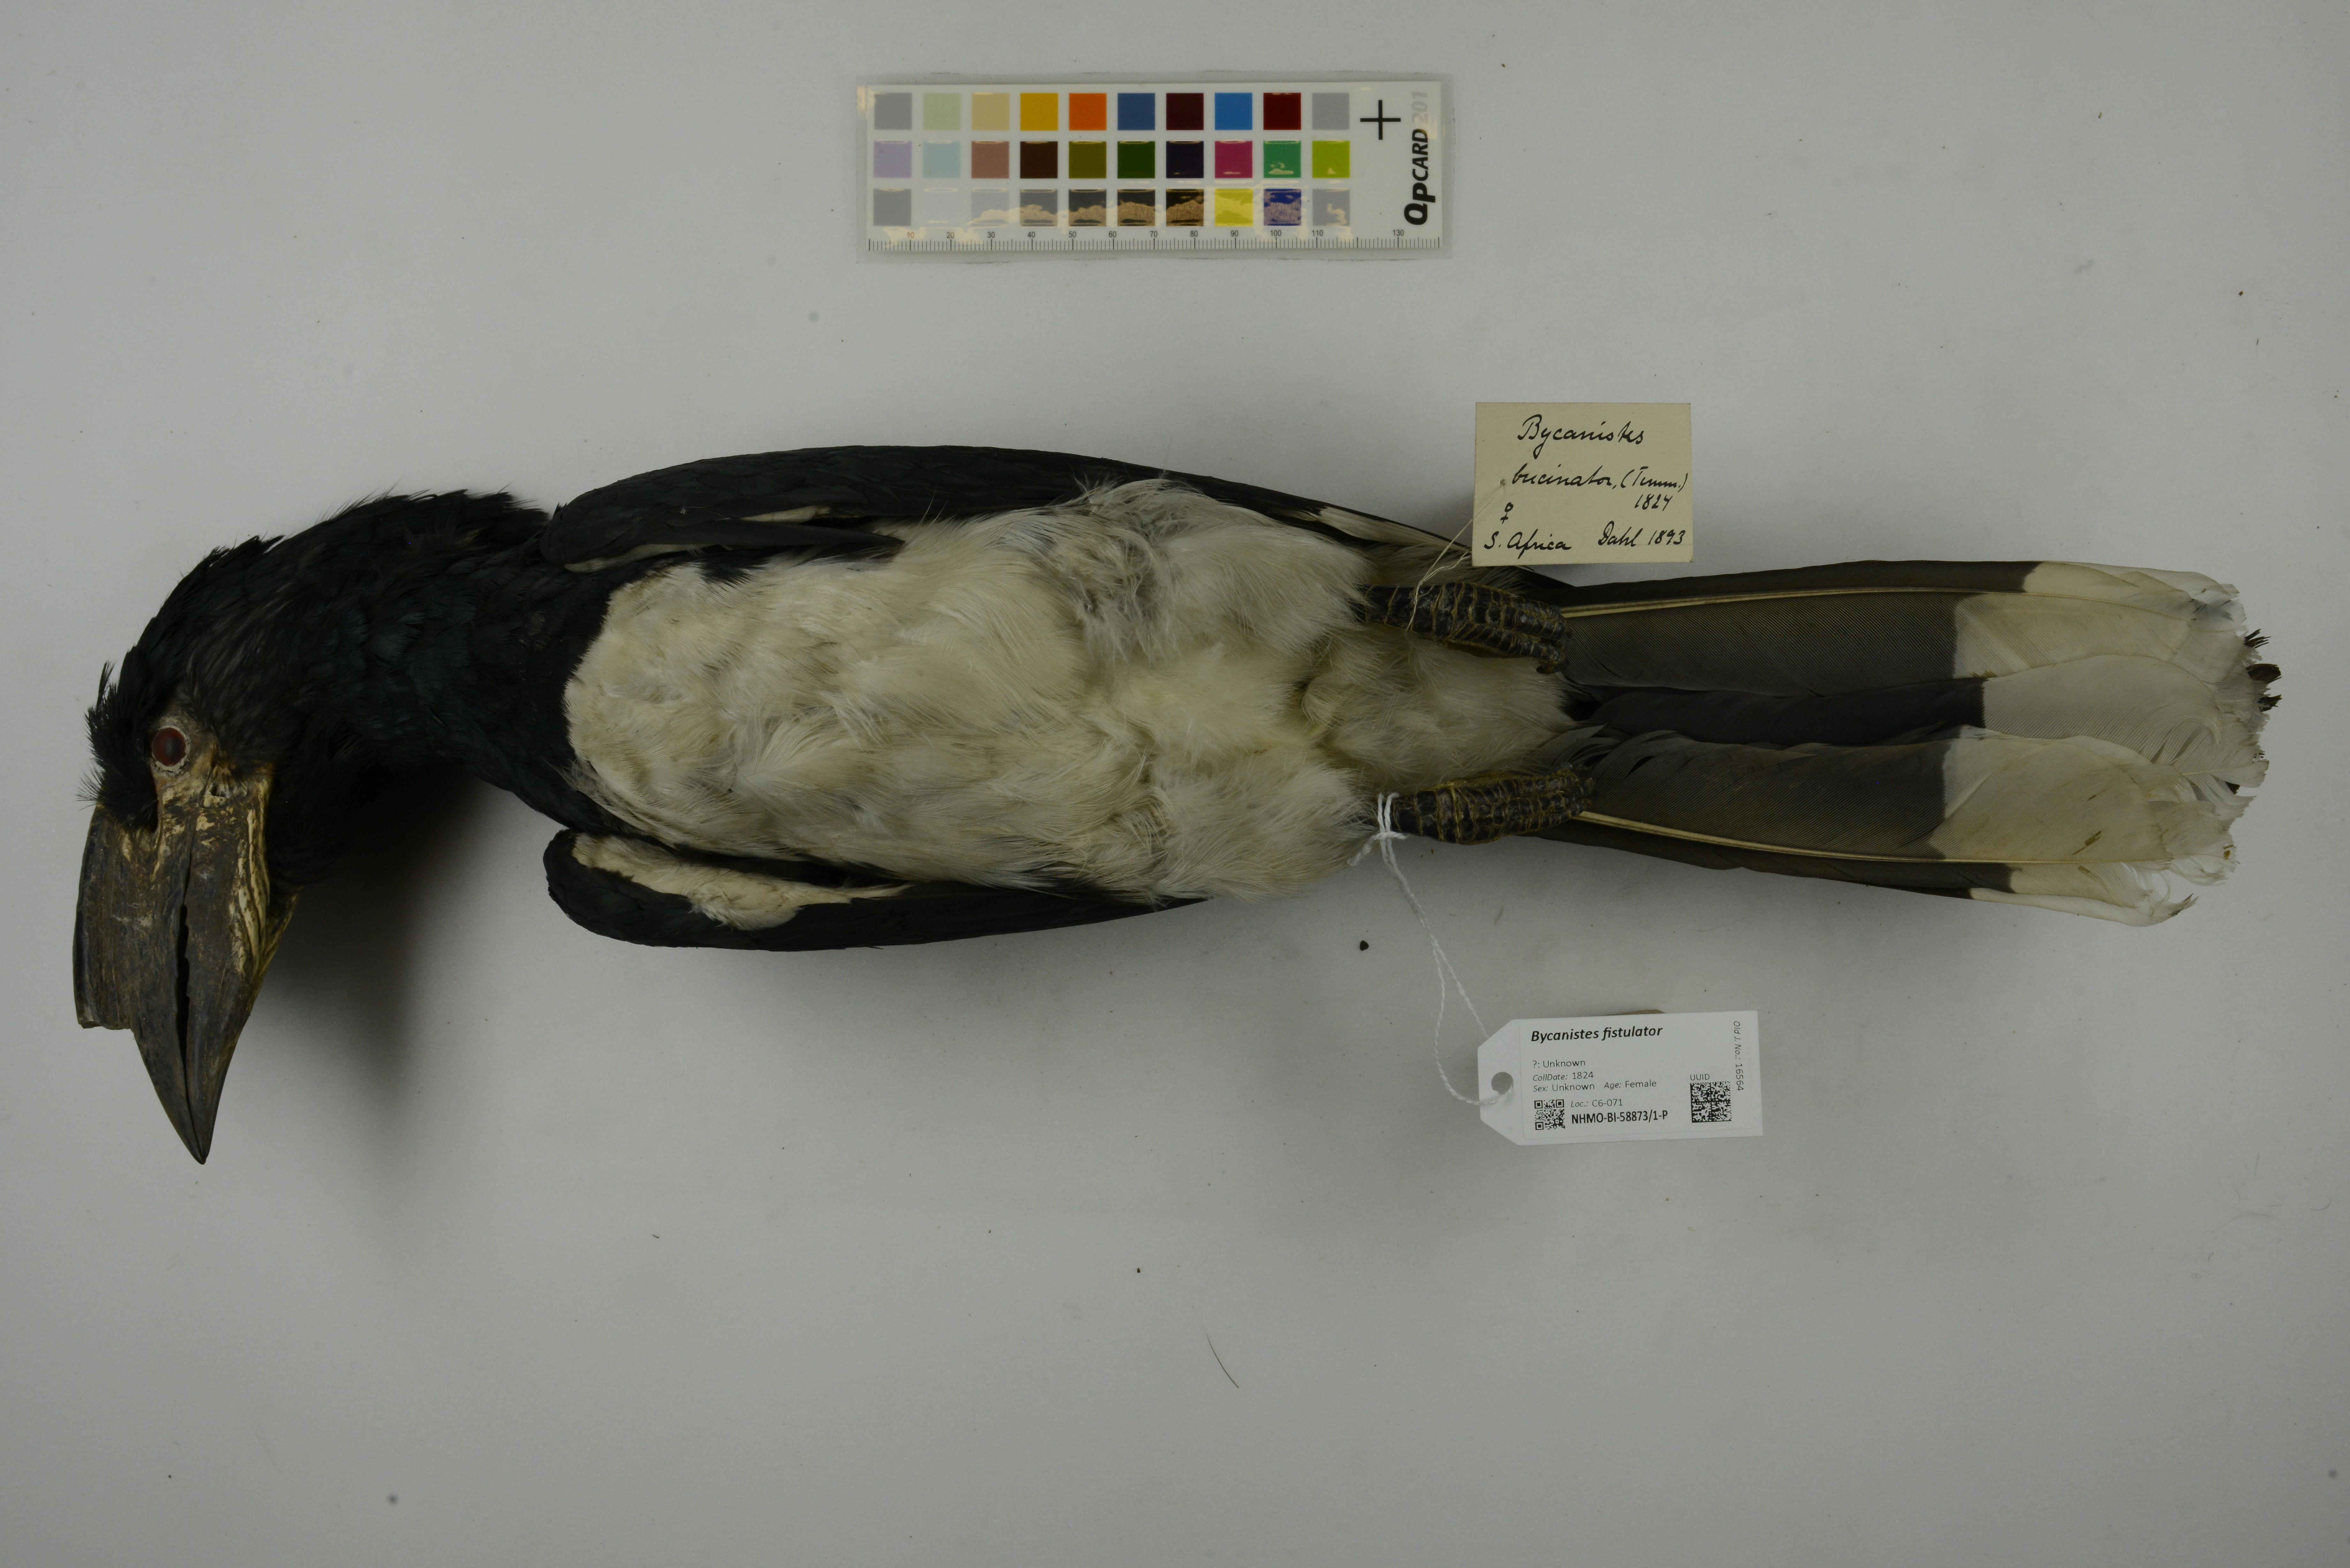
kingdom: Animalia
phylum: Chordata
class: Aves
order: Bucerotiformes
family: Bucerotidae
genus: Bycanistes
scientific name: Bycanistes fistulator
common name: Piping hornbill
